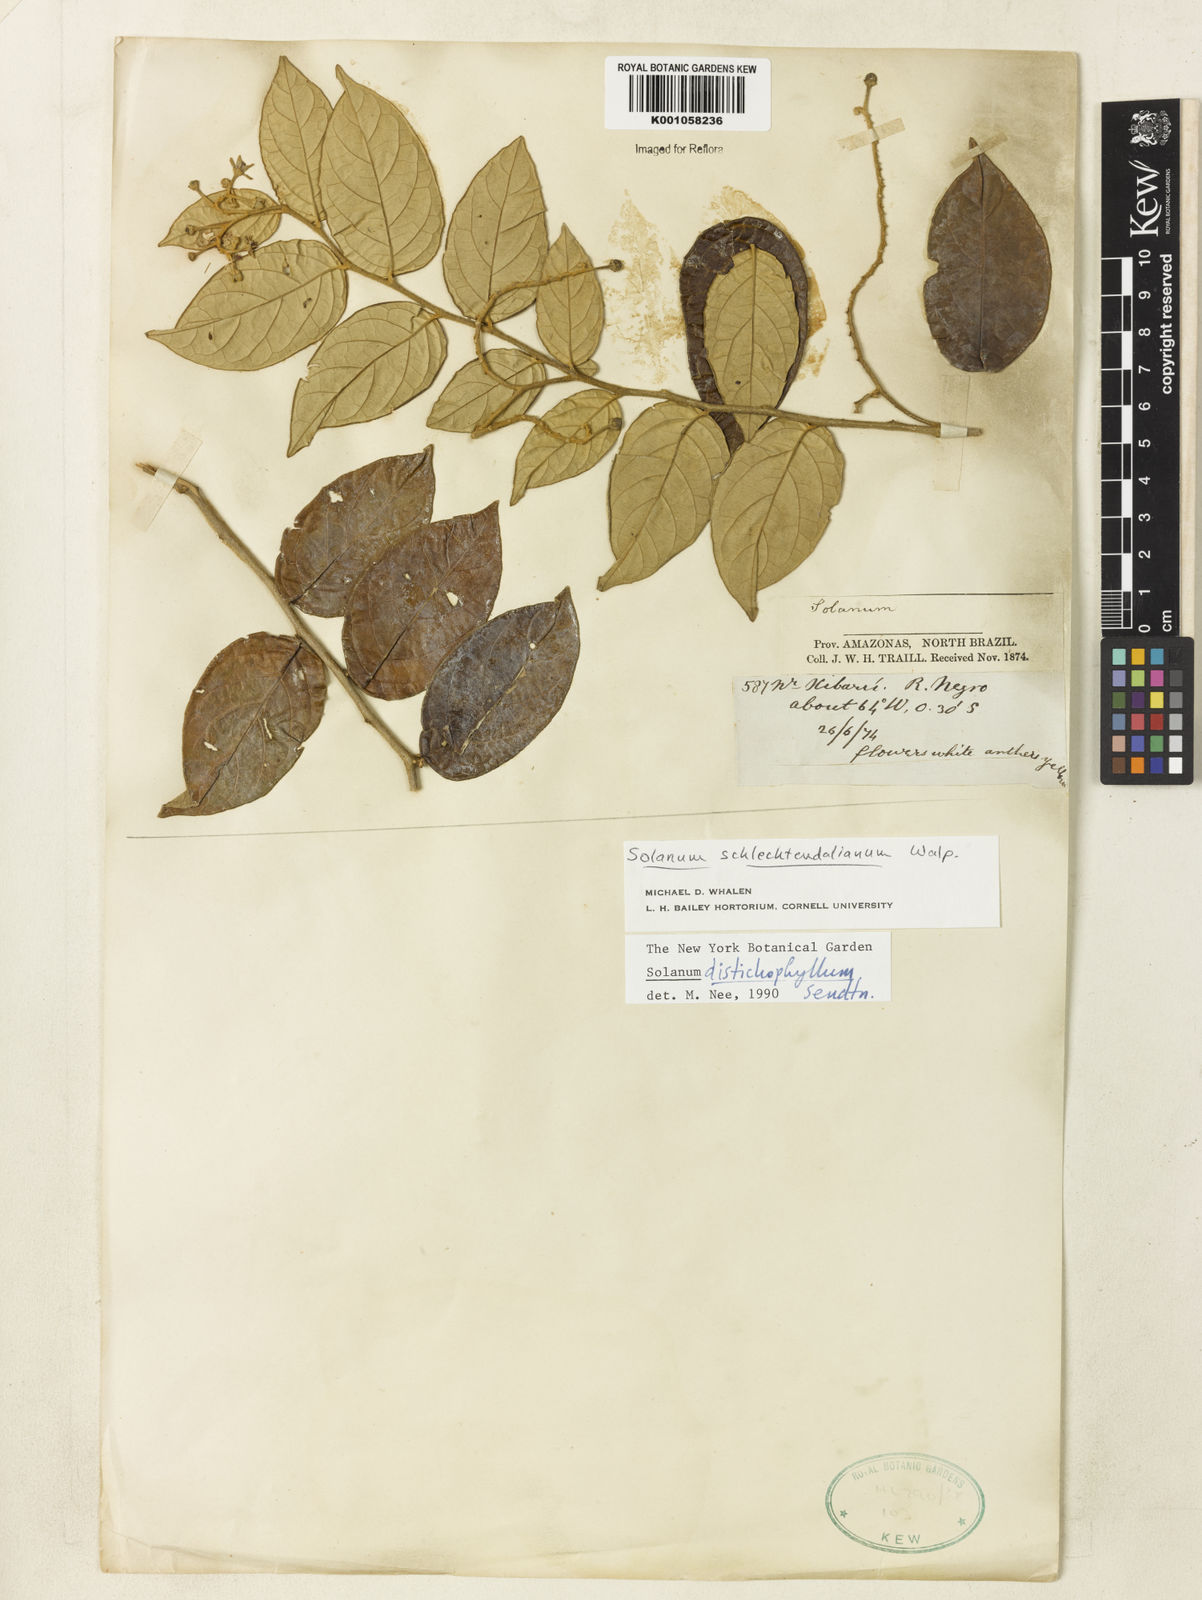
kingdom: Plantae
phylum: Tracheophyta
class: Magnoliopsida
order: Solanales
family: Solanaceae
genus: Solanum
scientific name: Solanum distichophyllum
